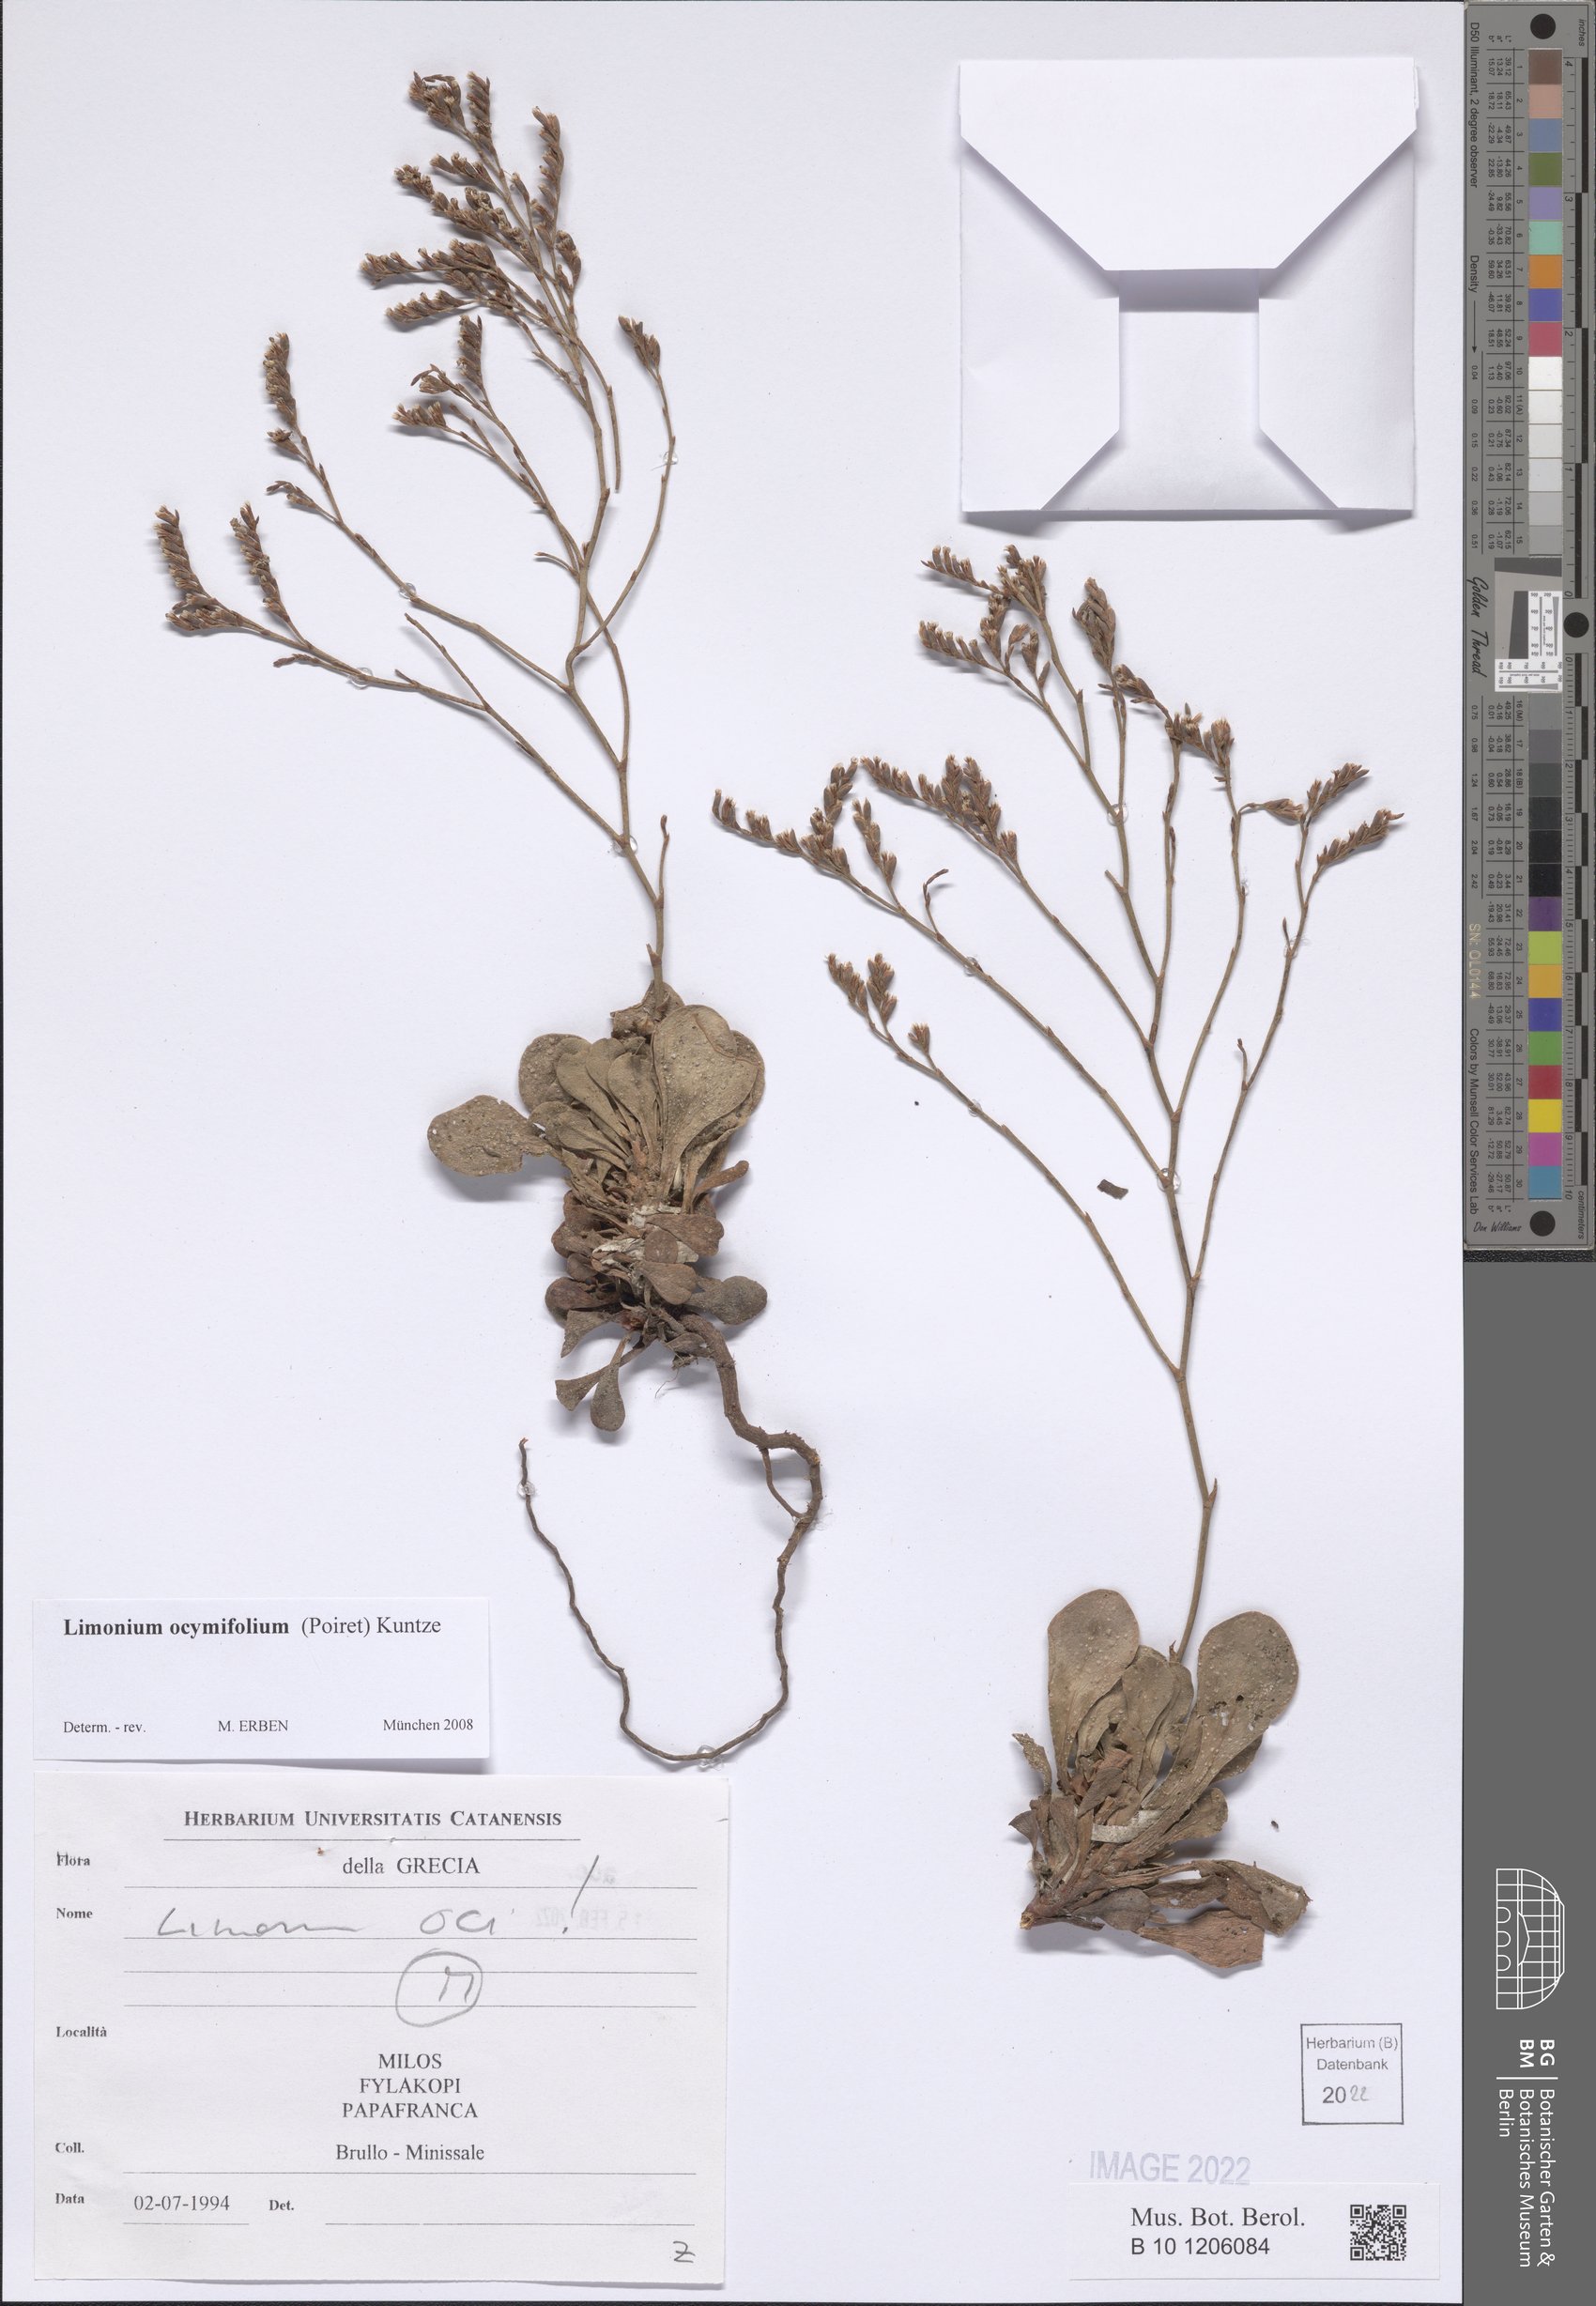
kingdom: Plantae
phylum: Tracheophyta
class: Magnoliopsida
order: Caryophyllales
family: Plumbaginaceae
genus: Limonium
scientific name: Limonium ocymifolium
